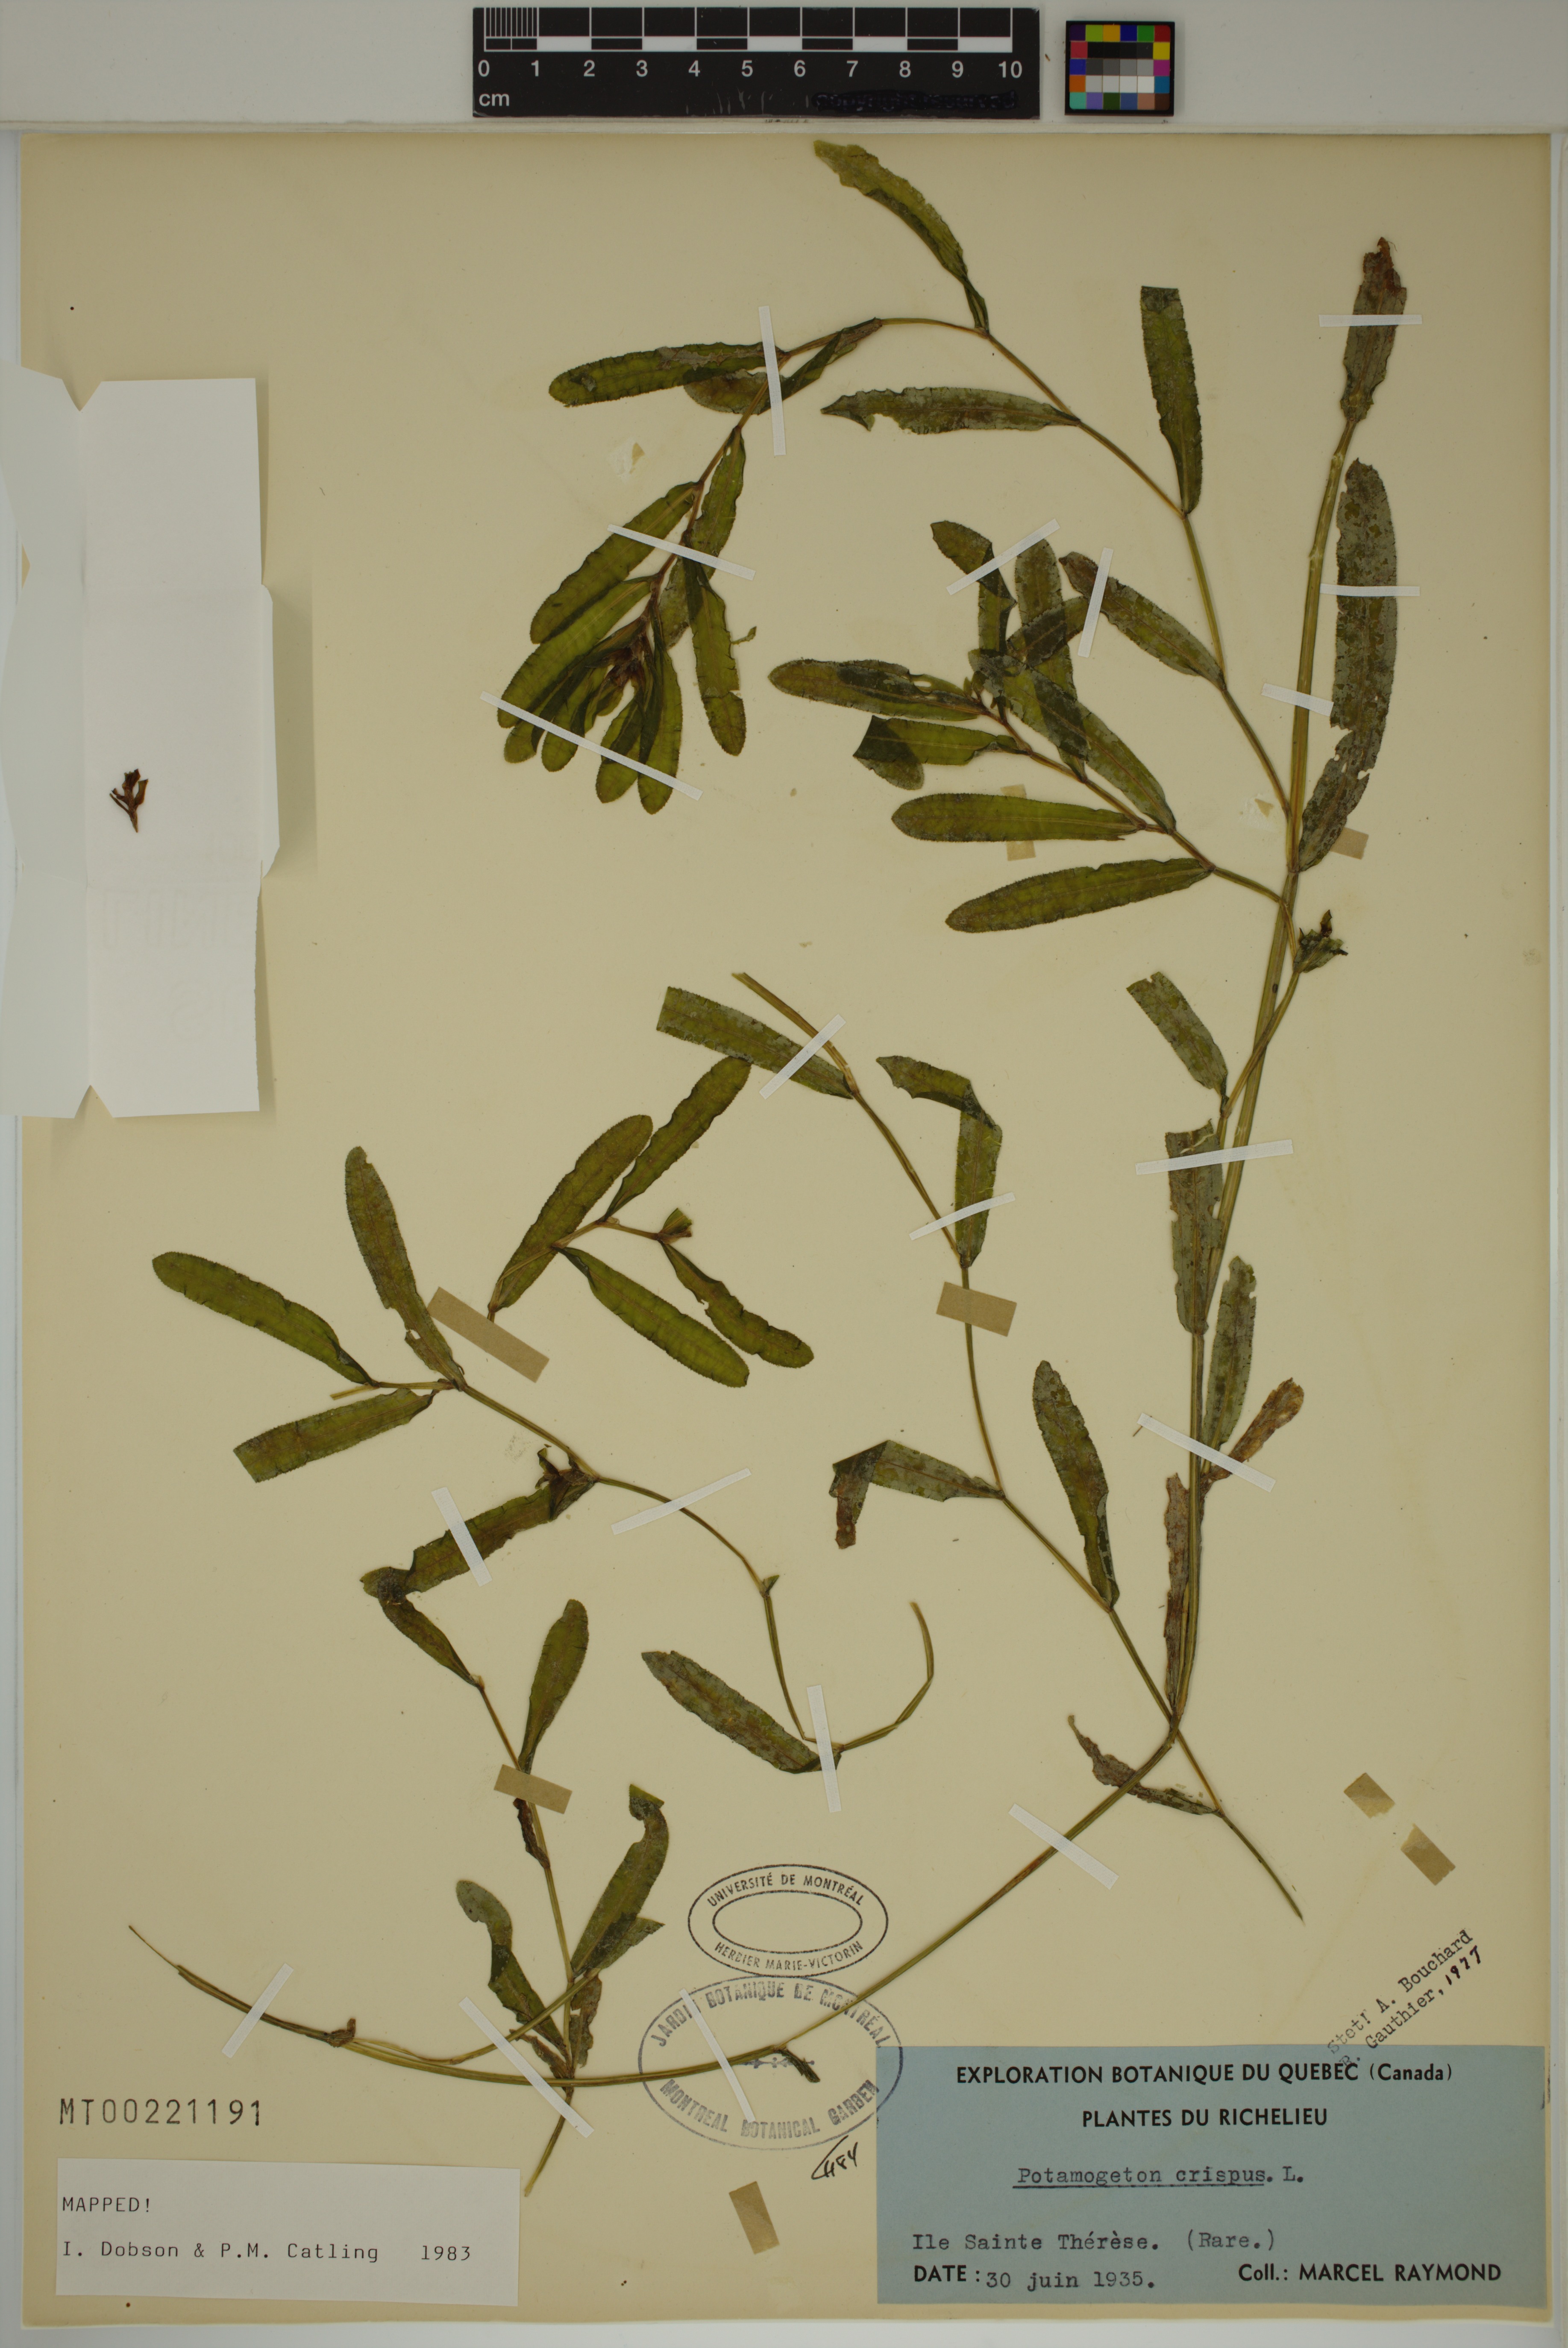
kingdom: Plantae
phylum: Tracheophyta
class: Liliopsida
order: Alismatales
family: Potamogetonaceae
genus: Potamogeton
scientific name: Potamogeton crispus
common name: Curled pondweed
